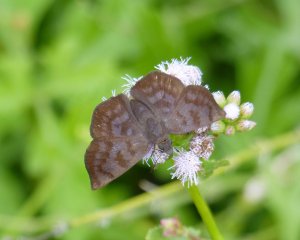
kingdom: Animalia
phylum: Arthropoda
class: Insecta
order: Lepidoptera
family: Hesperiidae
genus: Pellicia
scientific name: Pellicia costimacula
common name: Glazed Pellicia
